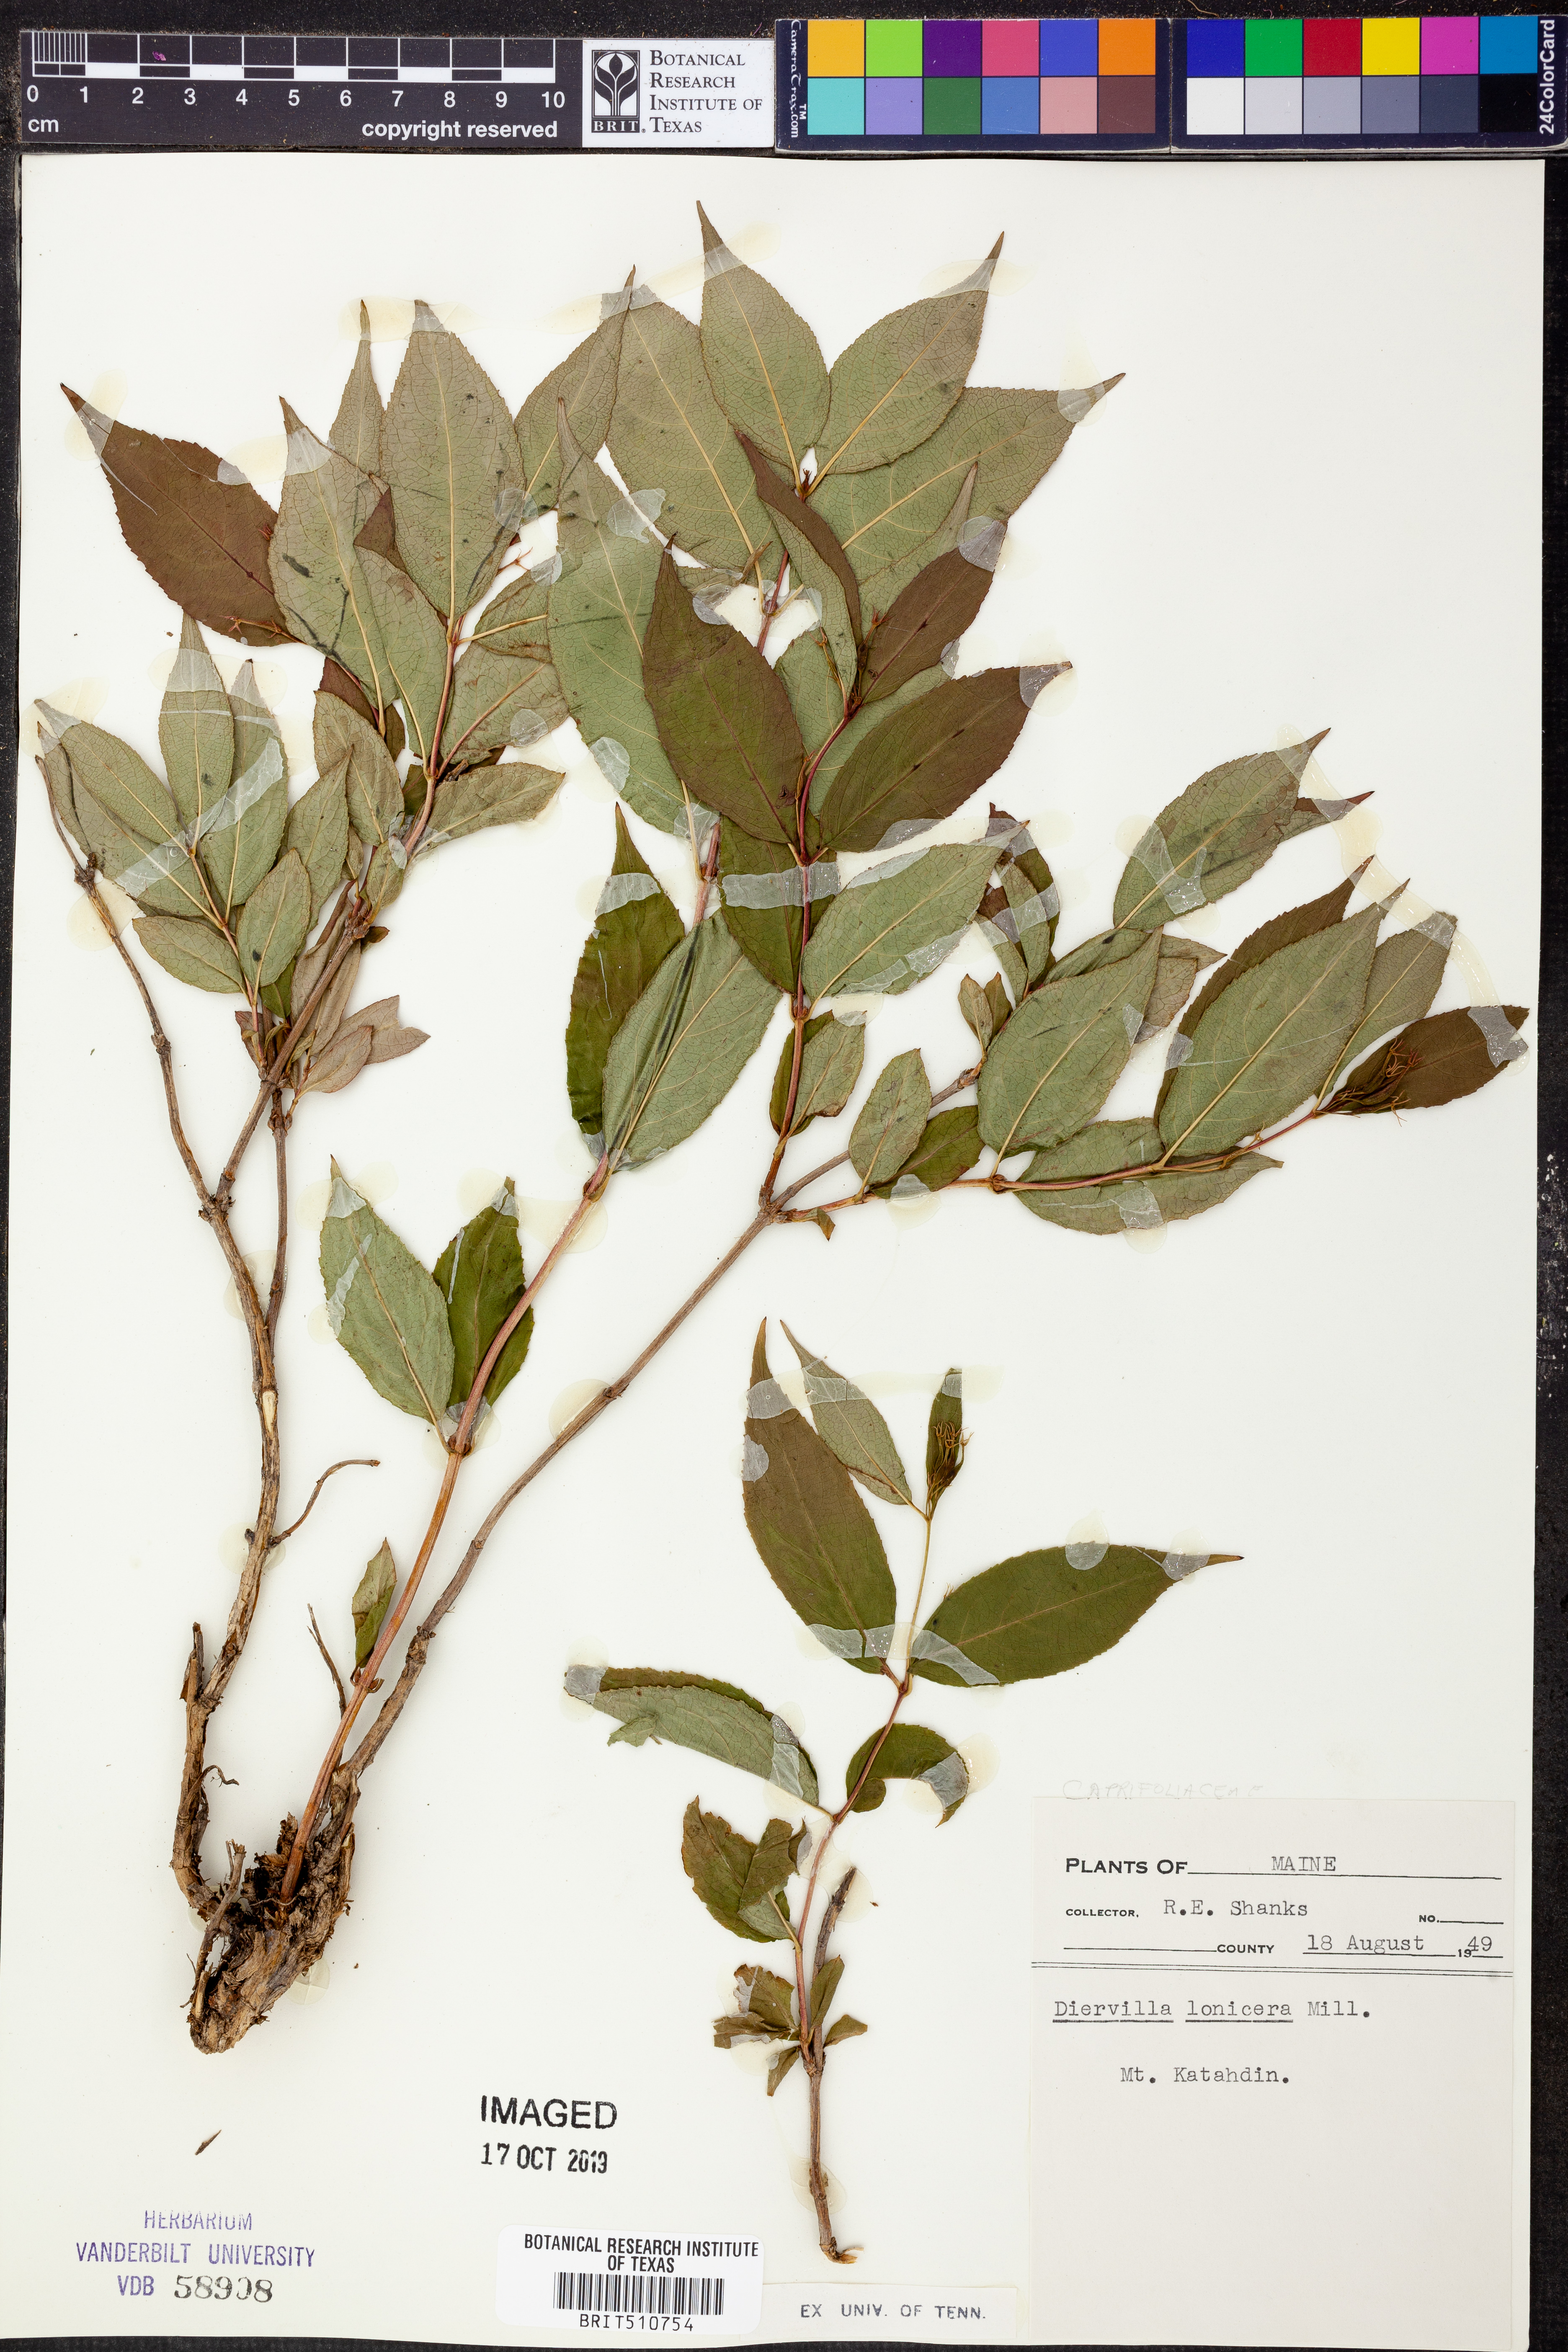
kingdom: Plantae
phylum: Tracheophyta
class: Magnoliopsida
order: Dipsacales
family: Caprifoliaceae
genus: Diervilla
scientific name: Diervilla lonicera
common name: Bush-honeysuckle
